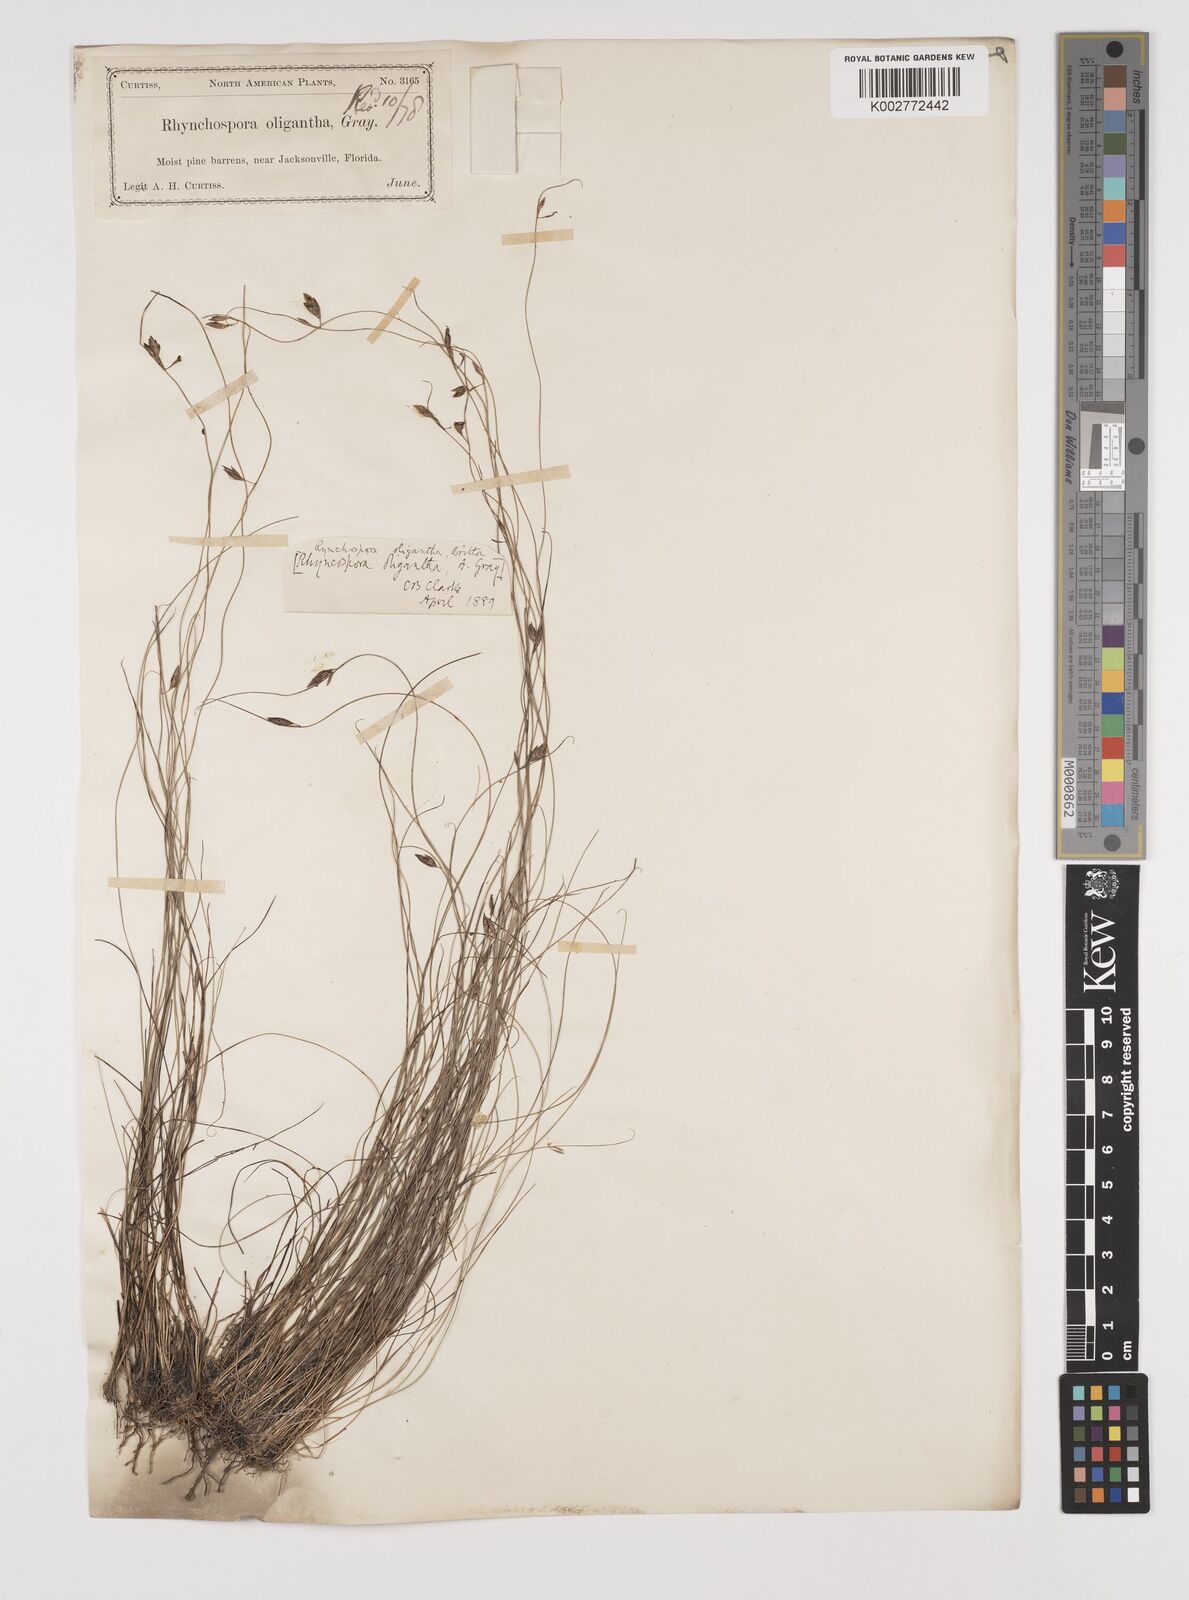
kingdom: Plantae
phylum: Tracheophyta
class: Liliopsida
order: Poales
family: Cyperaceae
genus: Rhynchospora
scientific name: Rhynchospora oligantha
